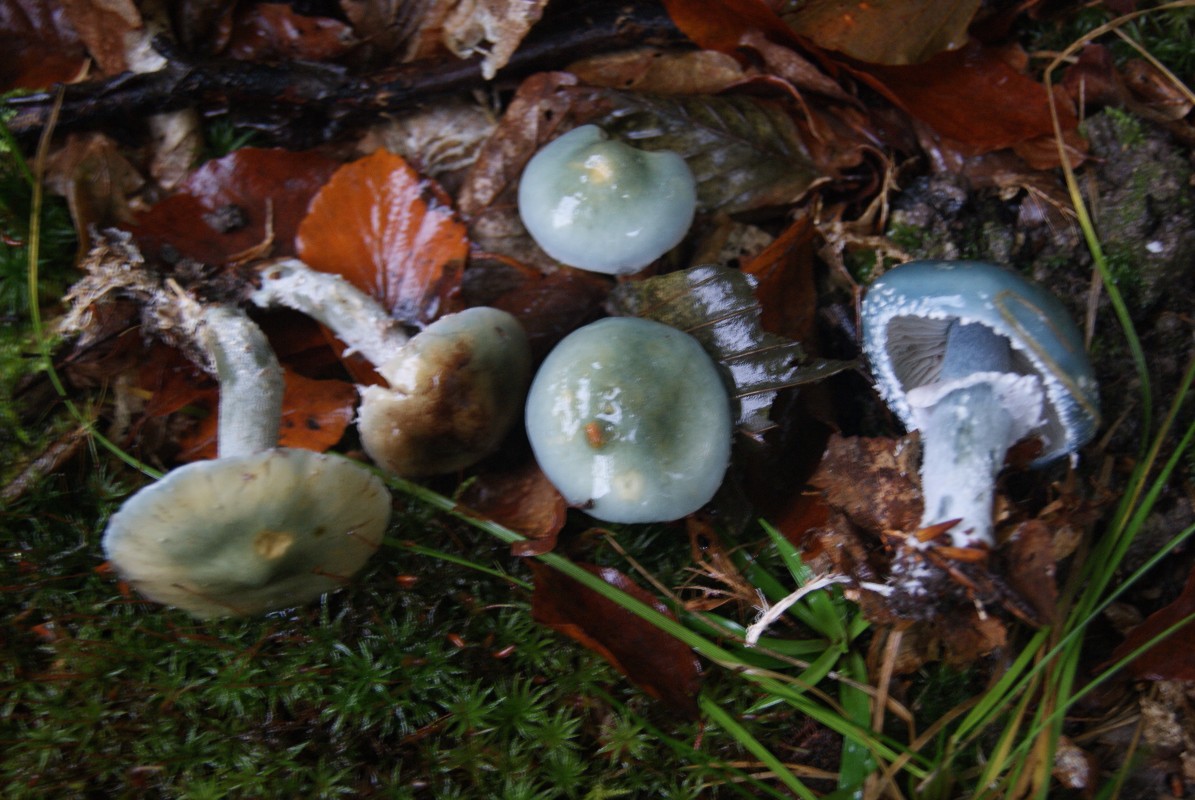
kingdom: Fungi
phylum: Basidiomycota
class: Agaricomycetes
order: Agaricales
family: Strophariaceae
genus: Stropharia
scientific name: Stropharia aeruginosa
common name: spanskgrøn bredblad
